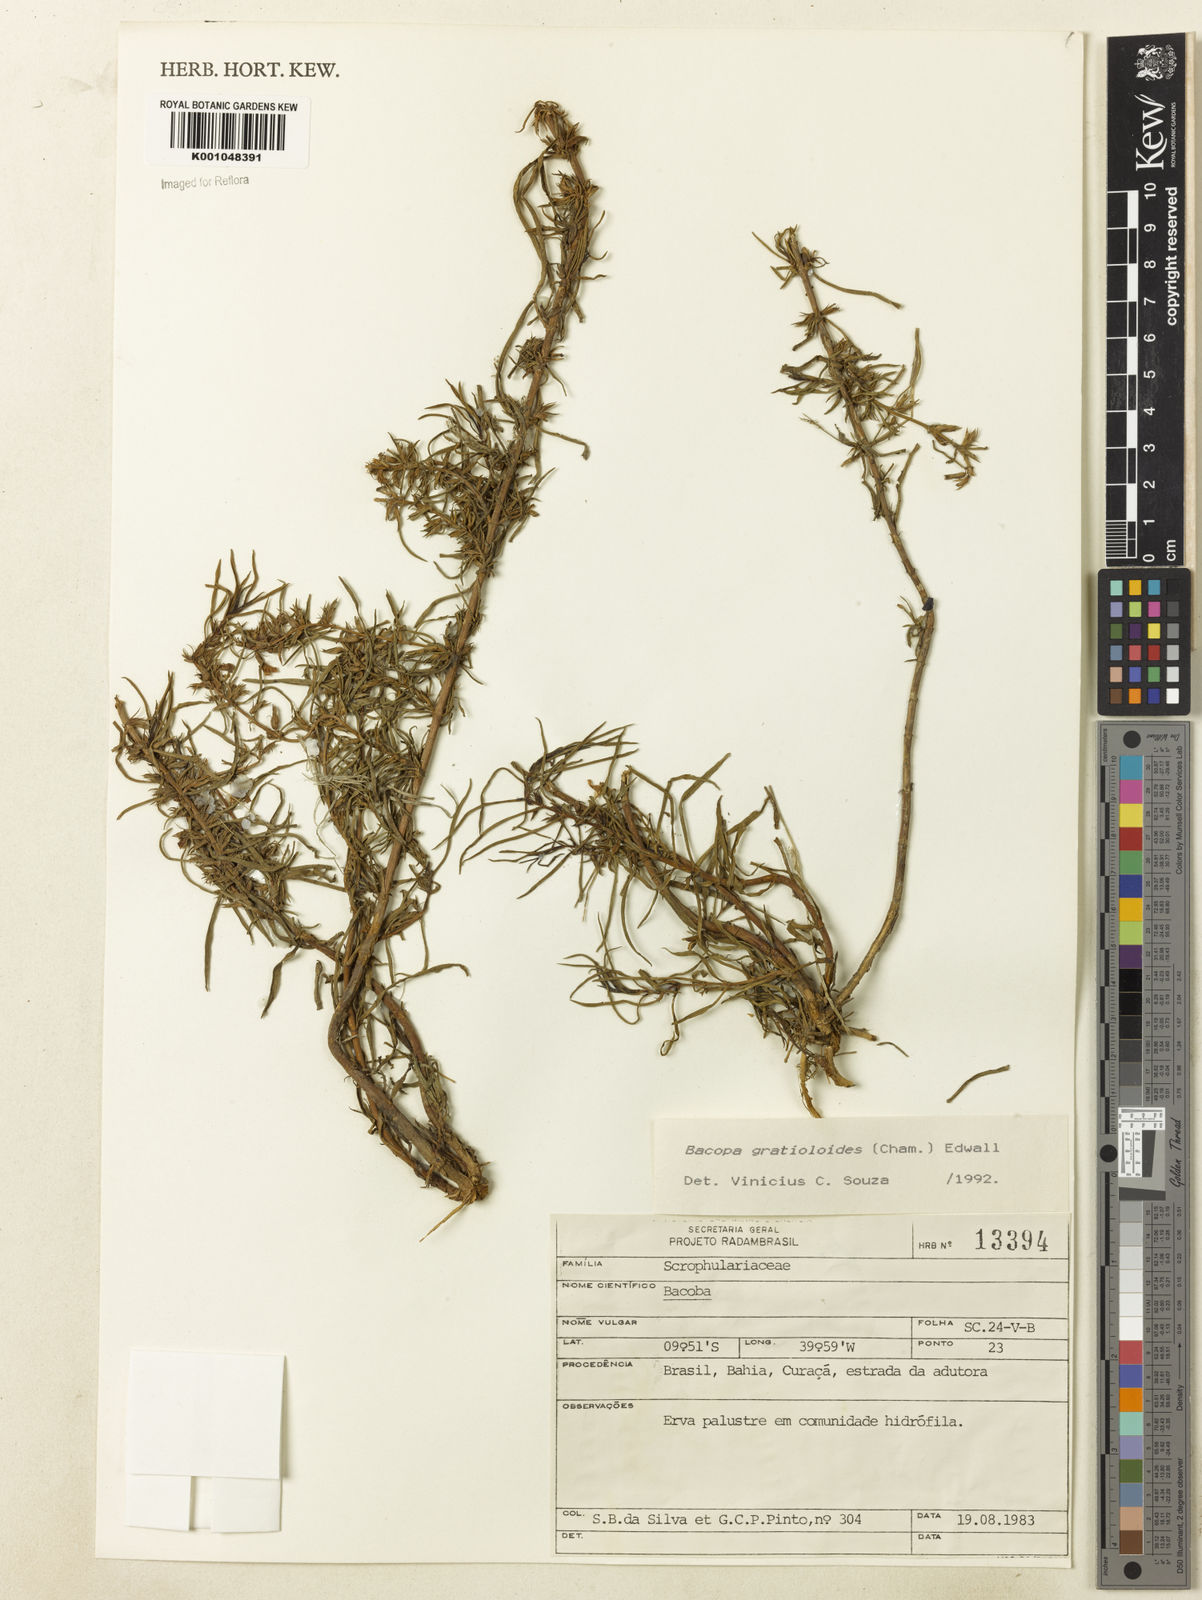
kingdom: Plantae
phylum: Tracheophyta
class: Magnoliopsida
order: Lamiales
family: Plantaginaceae
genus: Bacopa
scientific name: Bacopa
